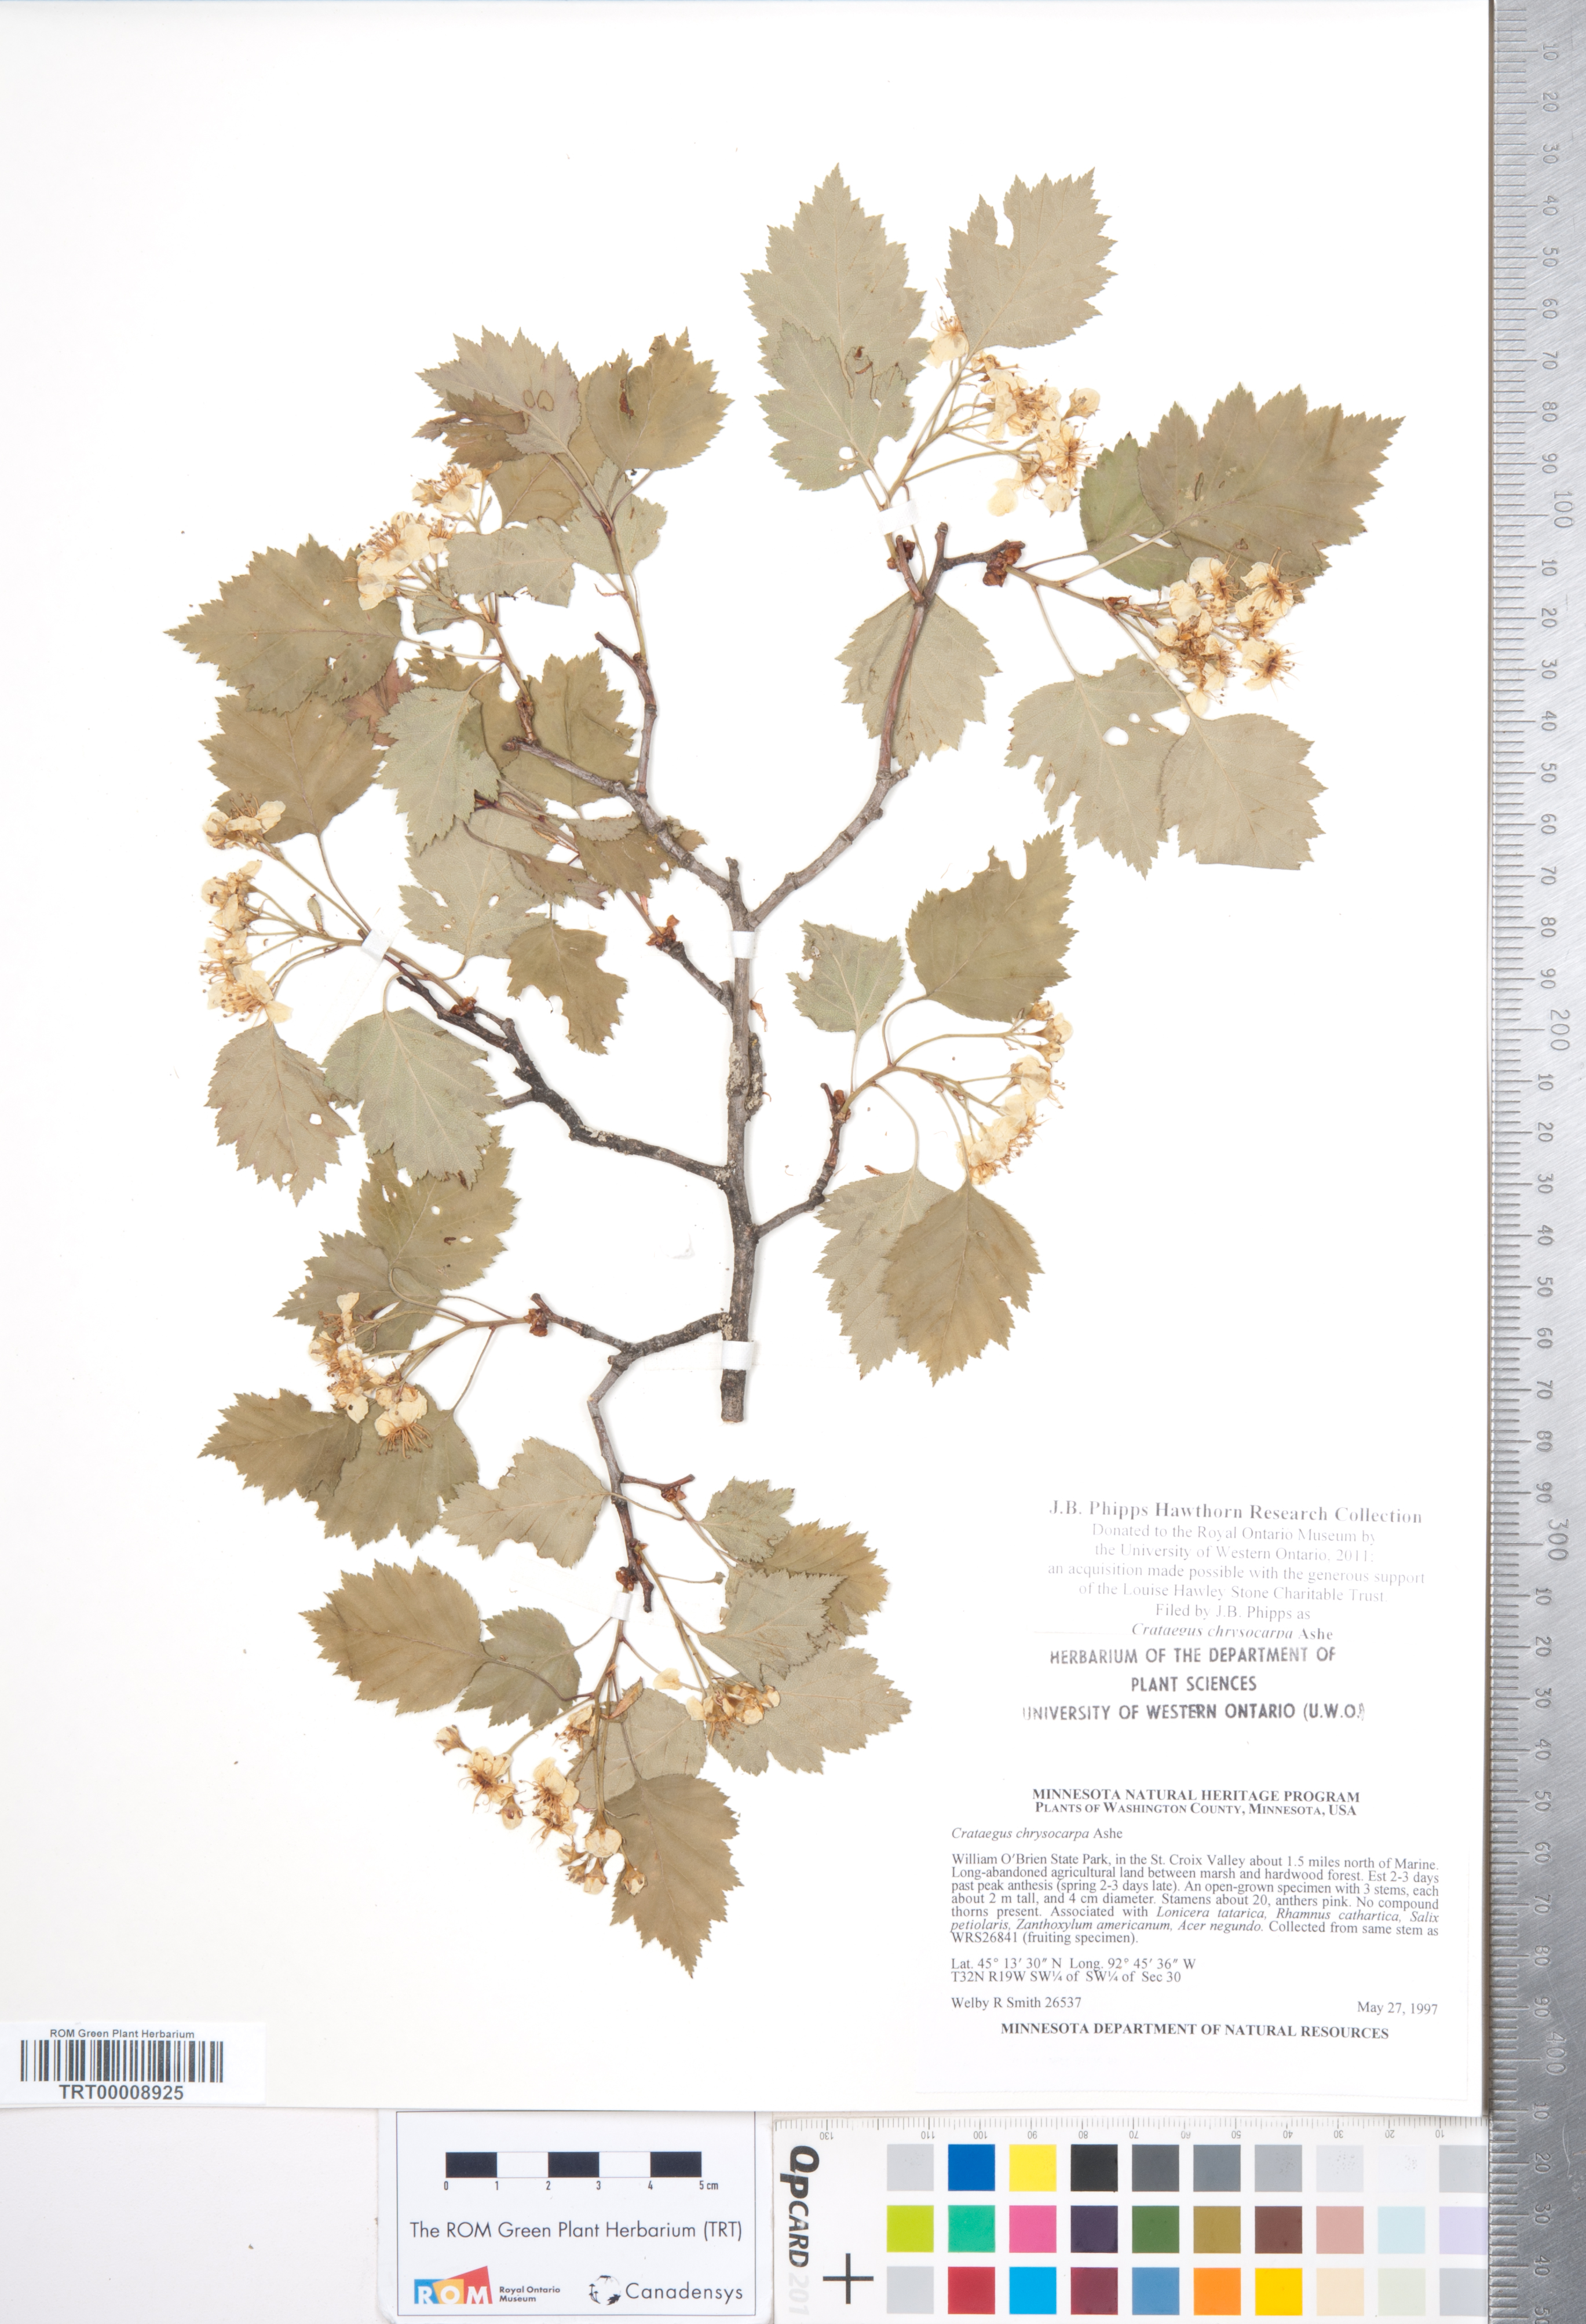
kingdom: Plantae
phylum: Tracheophyta
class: Magnoliopsida
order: Rosales
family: Rosaceae
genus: Crataegus
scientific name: Crataegus chrysocarpa
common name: Fire-berry hawthorn
